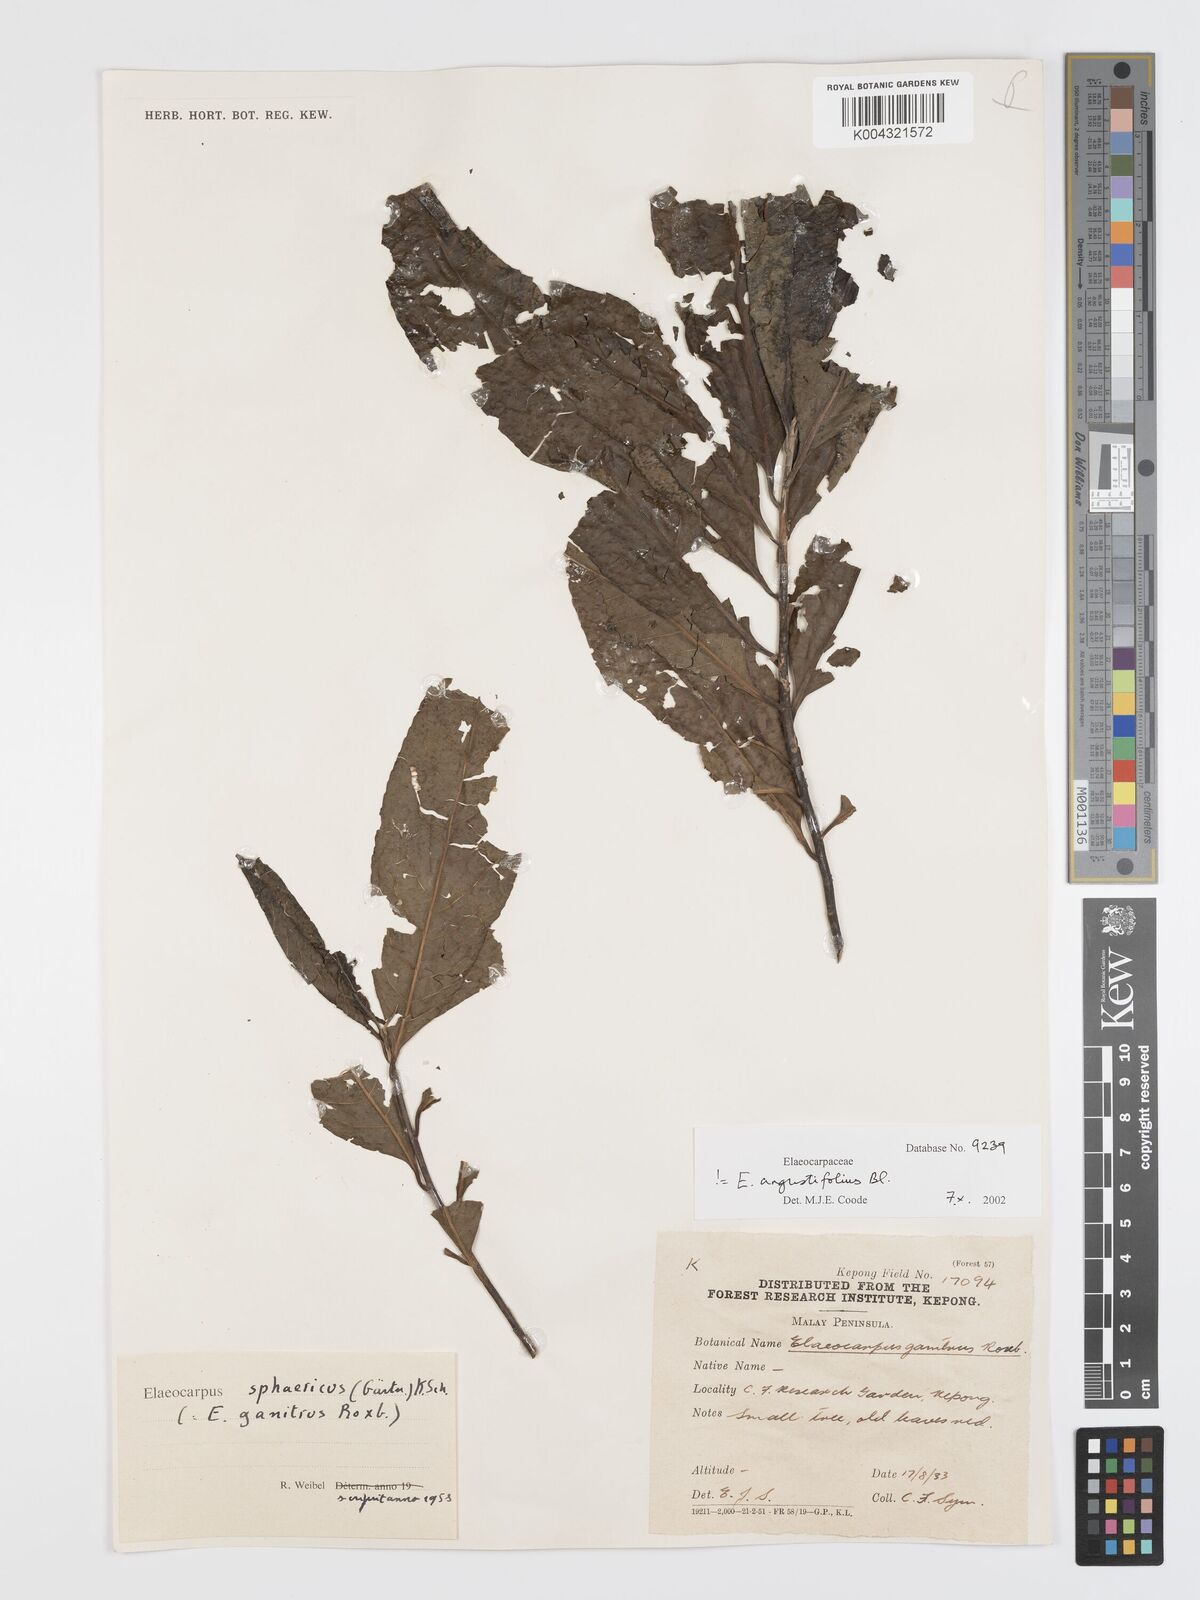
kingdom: Plantae
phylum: Tracheophyta
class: Magnoliopsida
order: Oxalidales
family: Elaeocarpaceae
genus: Elaeocarpus
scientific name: Elaeocarpus sphaericus
